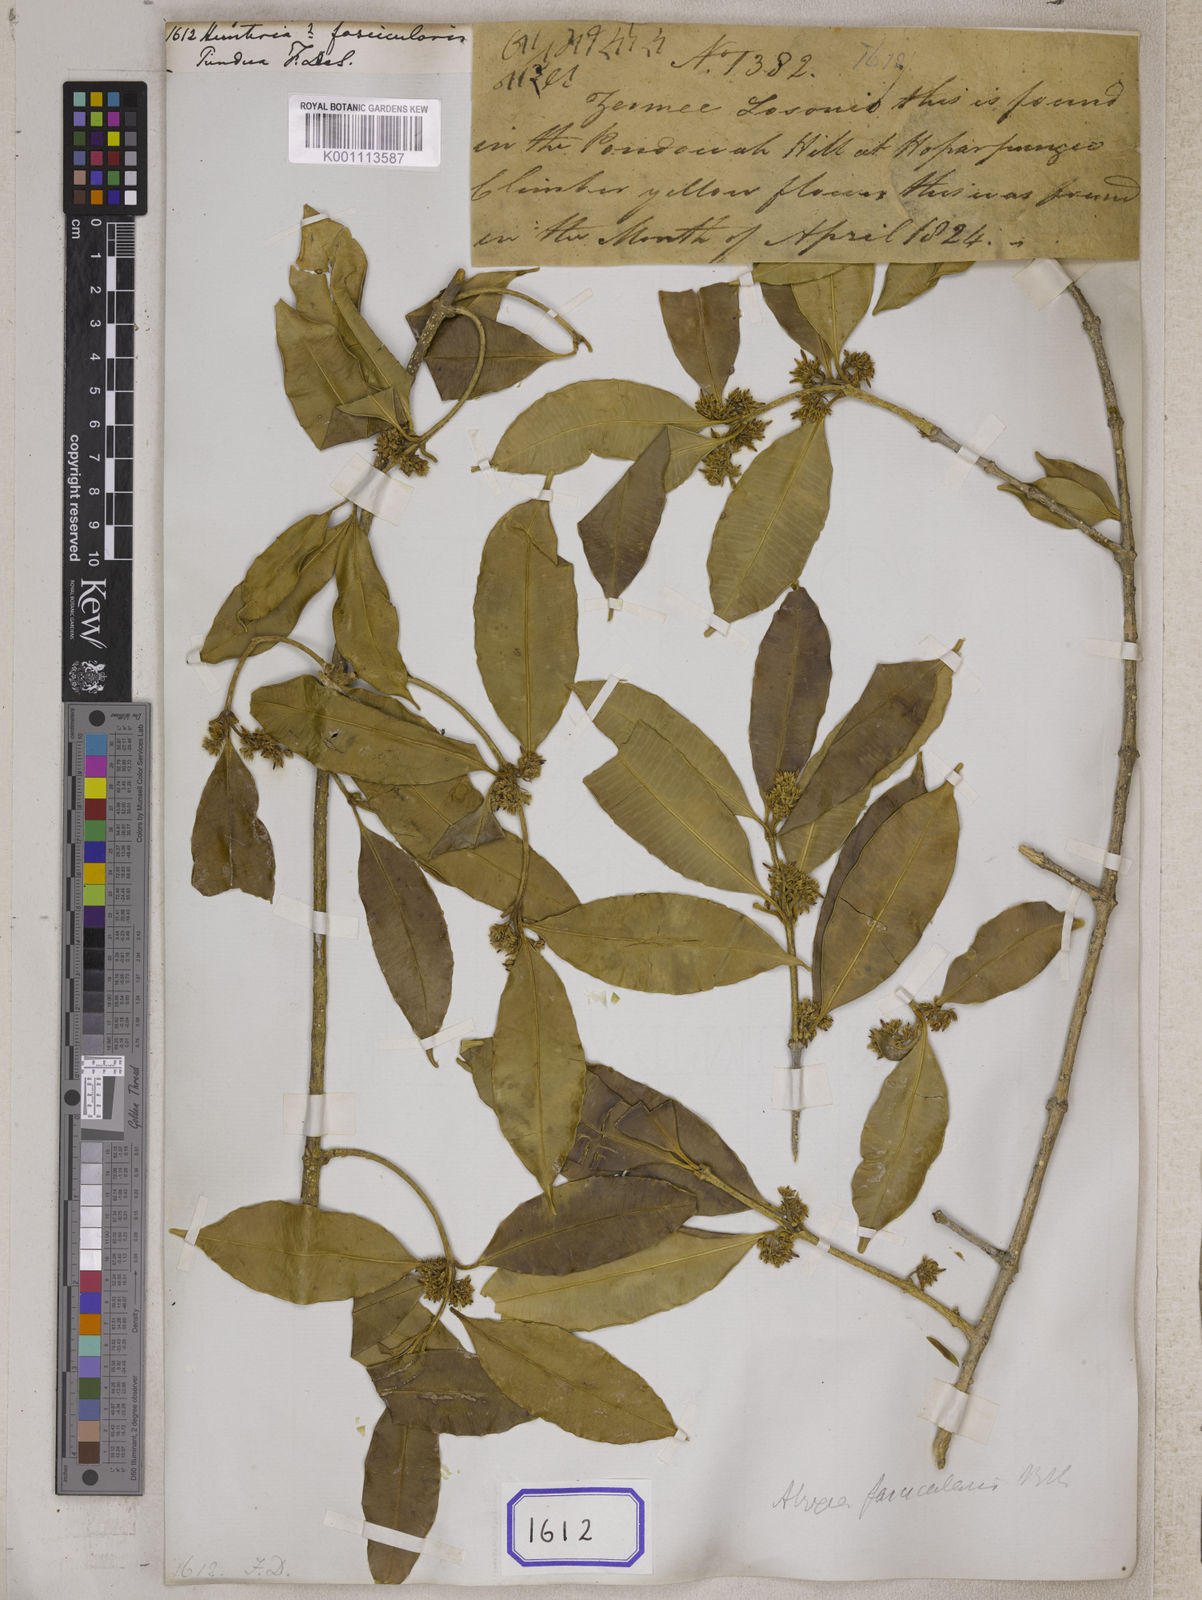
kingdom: Plantae
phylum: Tracheophyta
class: Magnoliopsida
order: Gentianales
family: Apocynaceae
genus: Hunteria
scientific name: Hunteria
